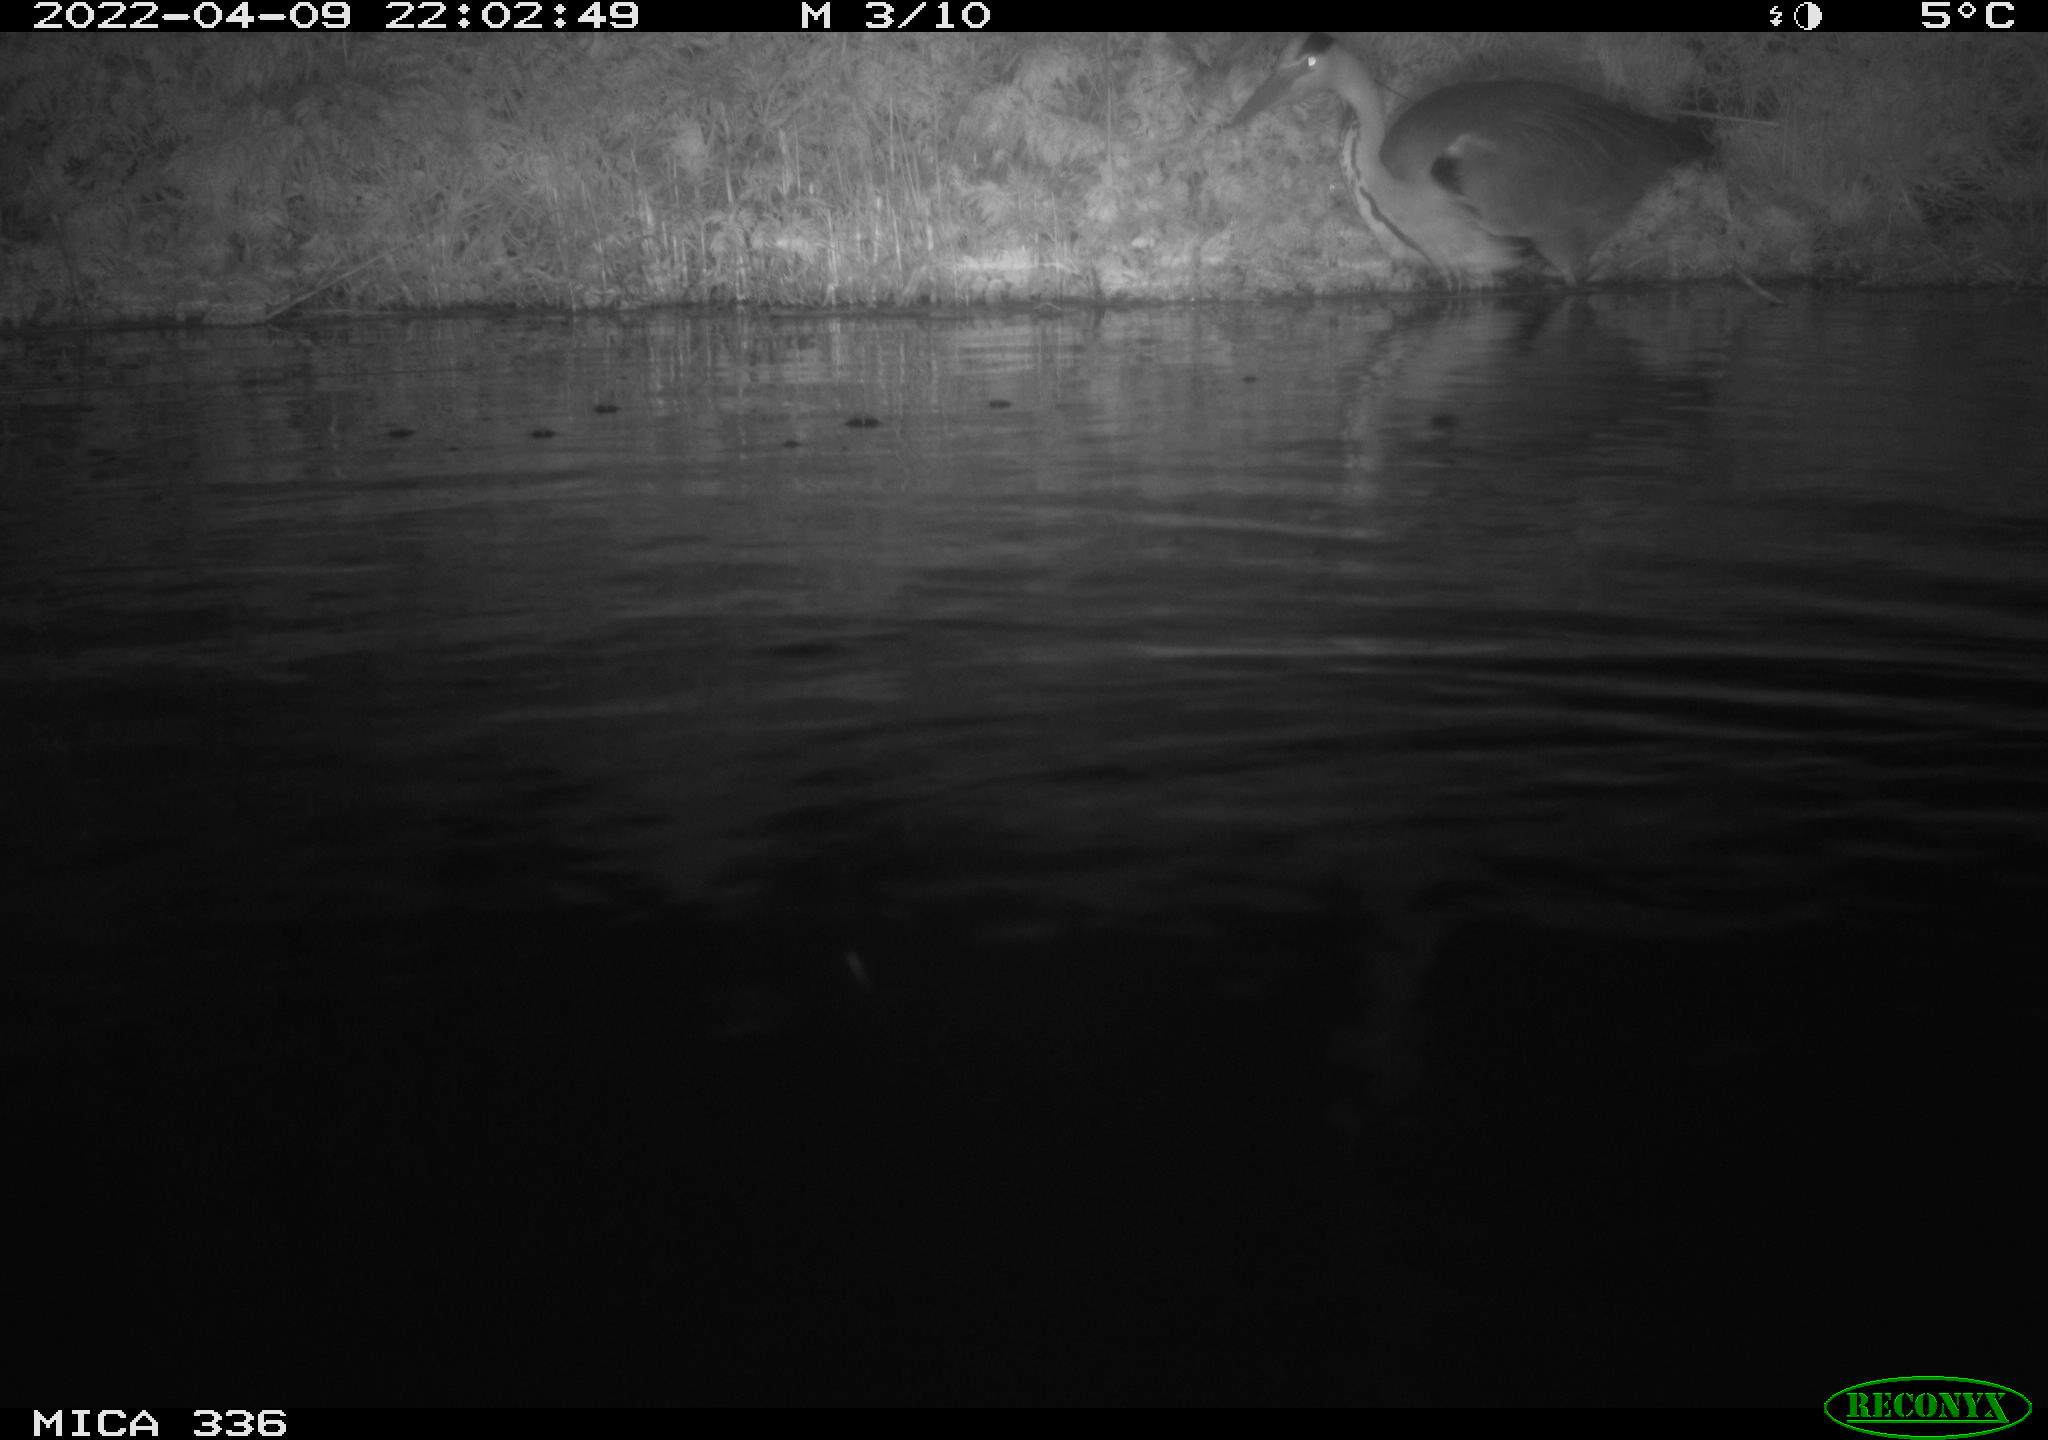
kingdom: Animalia
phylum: Chordata
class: Aves
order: Pelecaniformes
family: Ardeidae
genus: Ardea
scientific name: Ardea cinerea
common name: Grey heron
